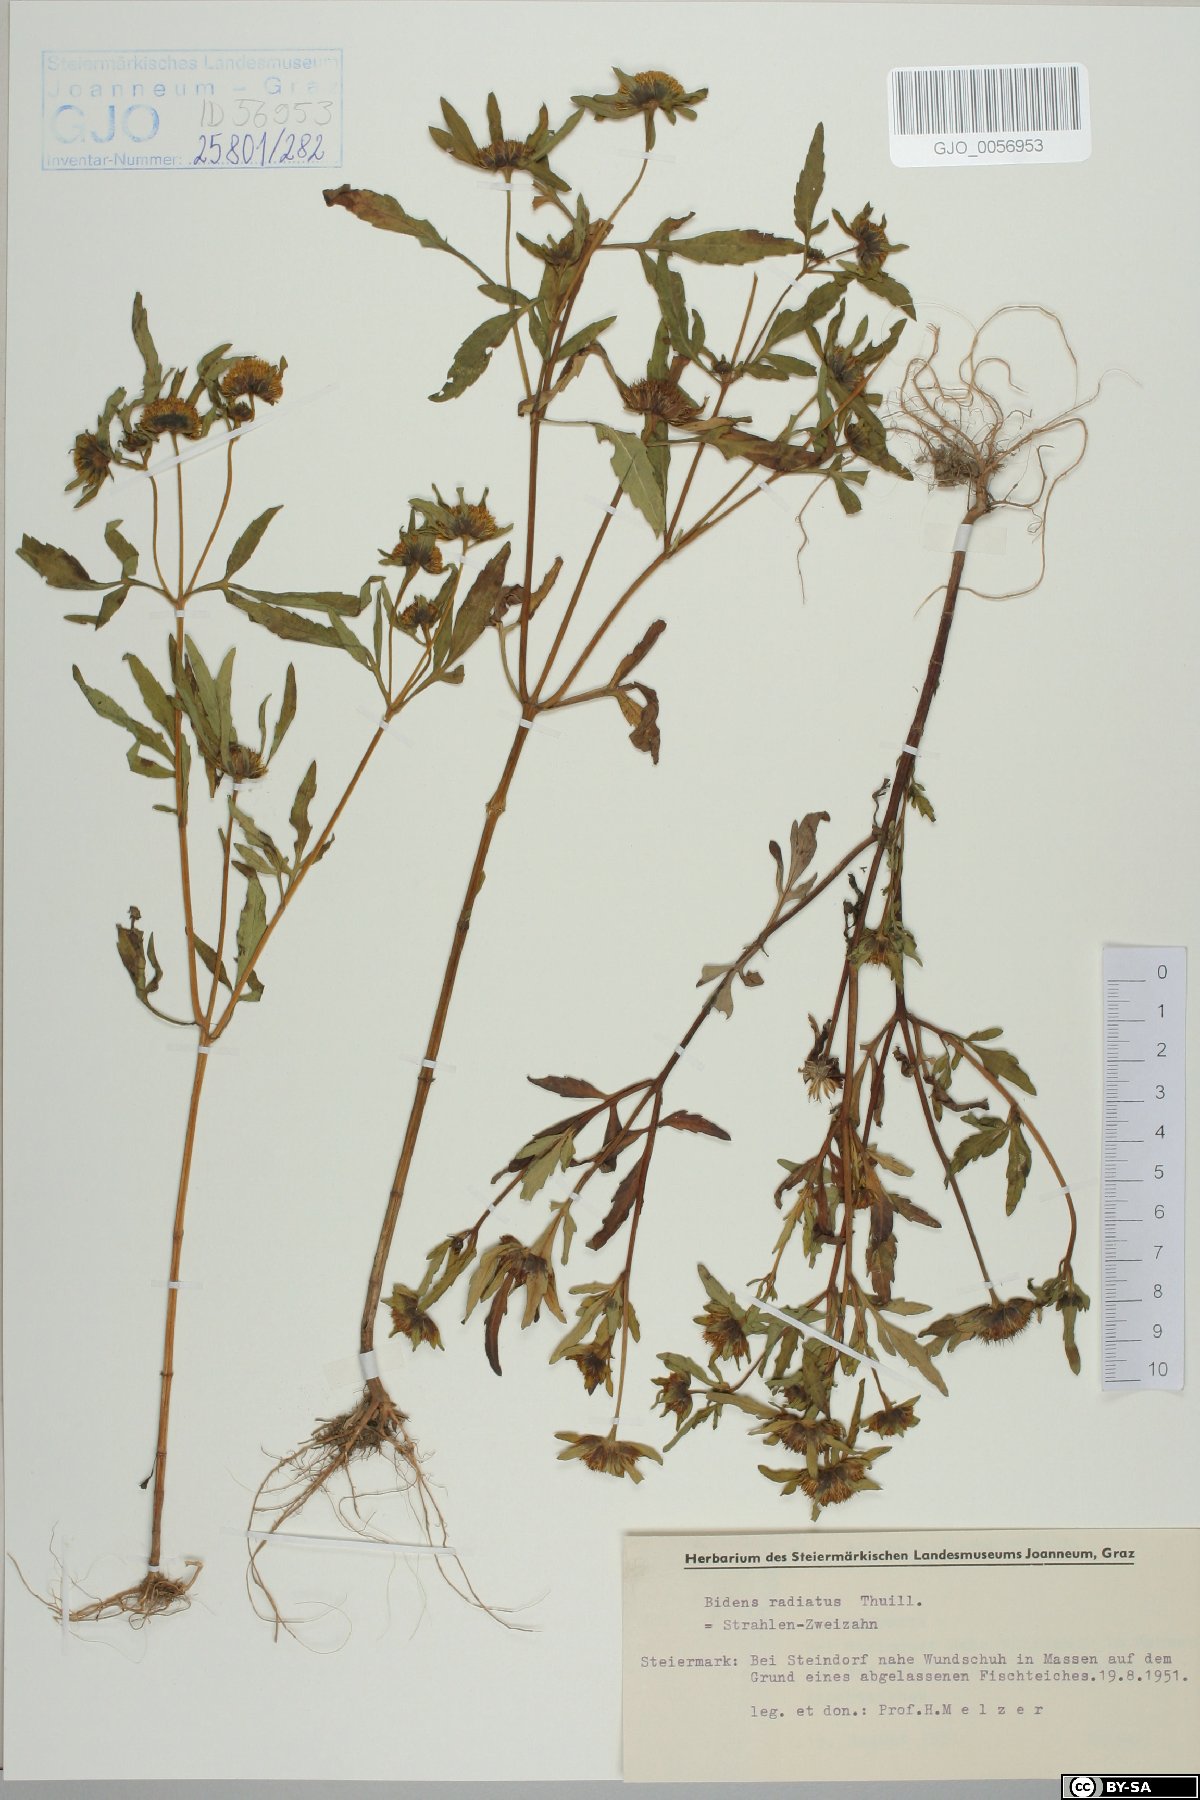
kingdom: Plantae
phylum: Tracheophyta
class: Magnoliopsida
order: Asterales
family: Asteraceae
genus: Bidens
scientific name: Bidens radiata
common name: Radiating bur-marigold
